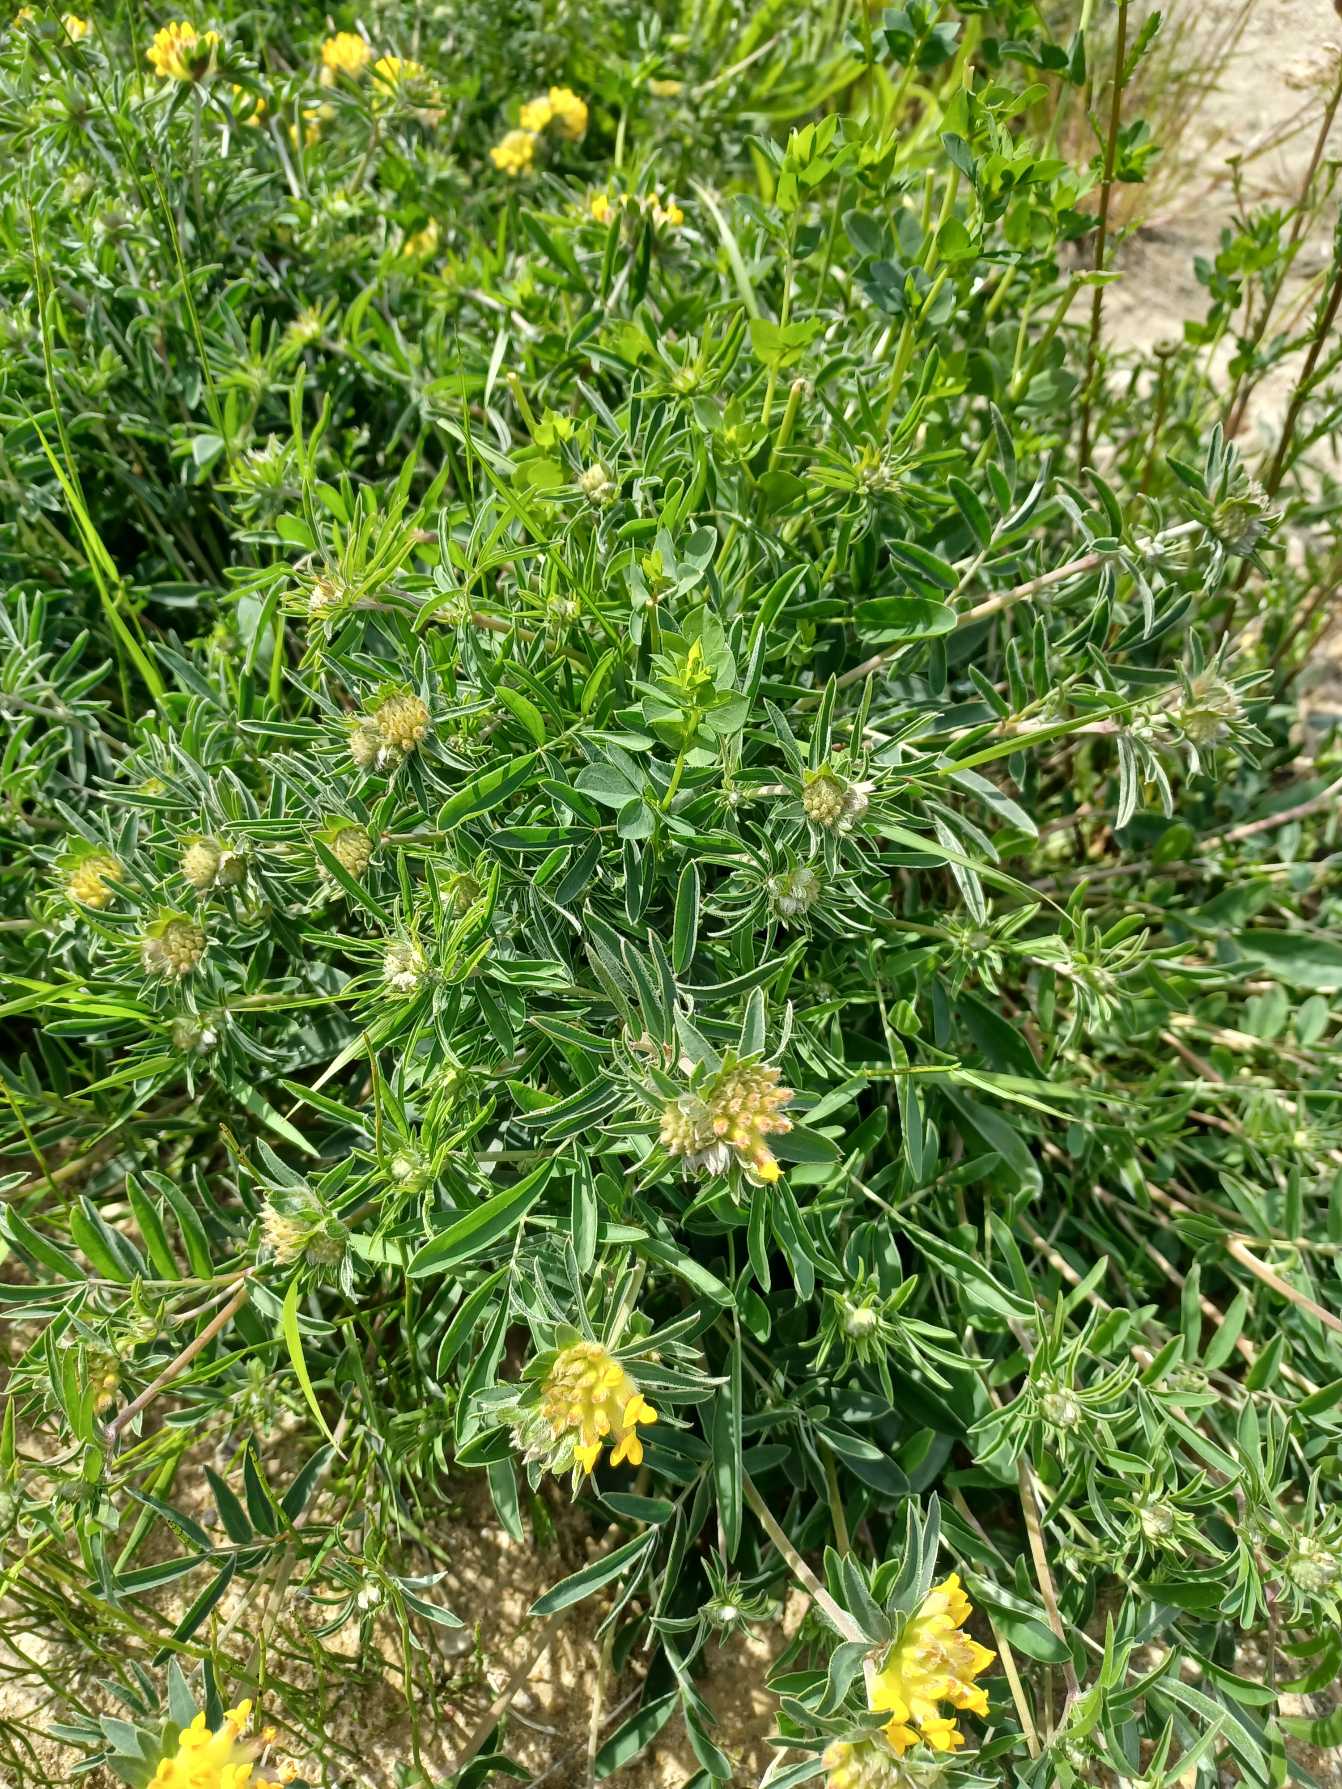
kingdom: Plantae
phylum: Tracheophyta
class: Magnoliopsida
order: Fabales
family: Fabaceae
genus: Anthyllis
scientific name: Anthyllis vulneraria
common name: Rundbælg
